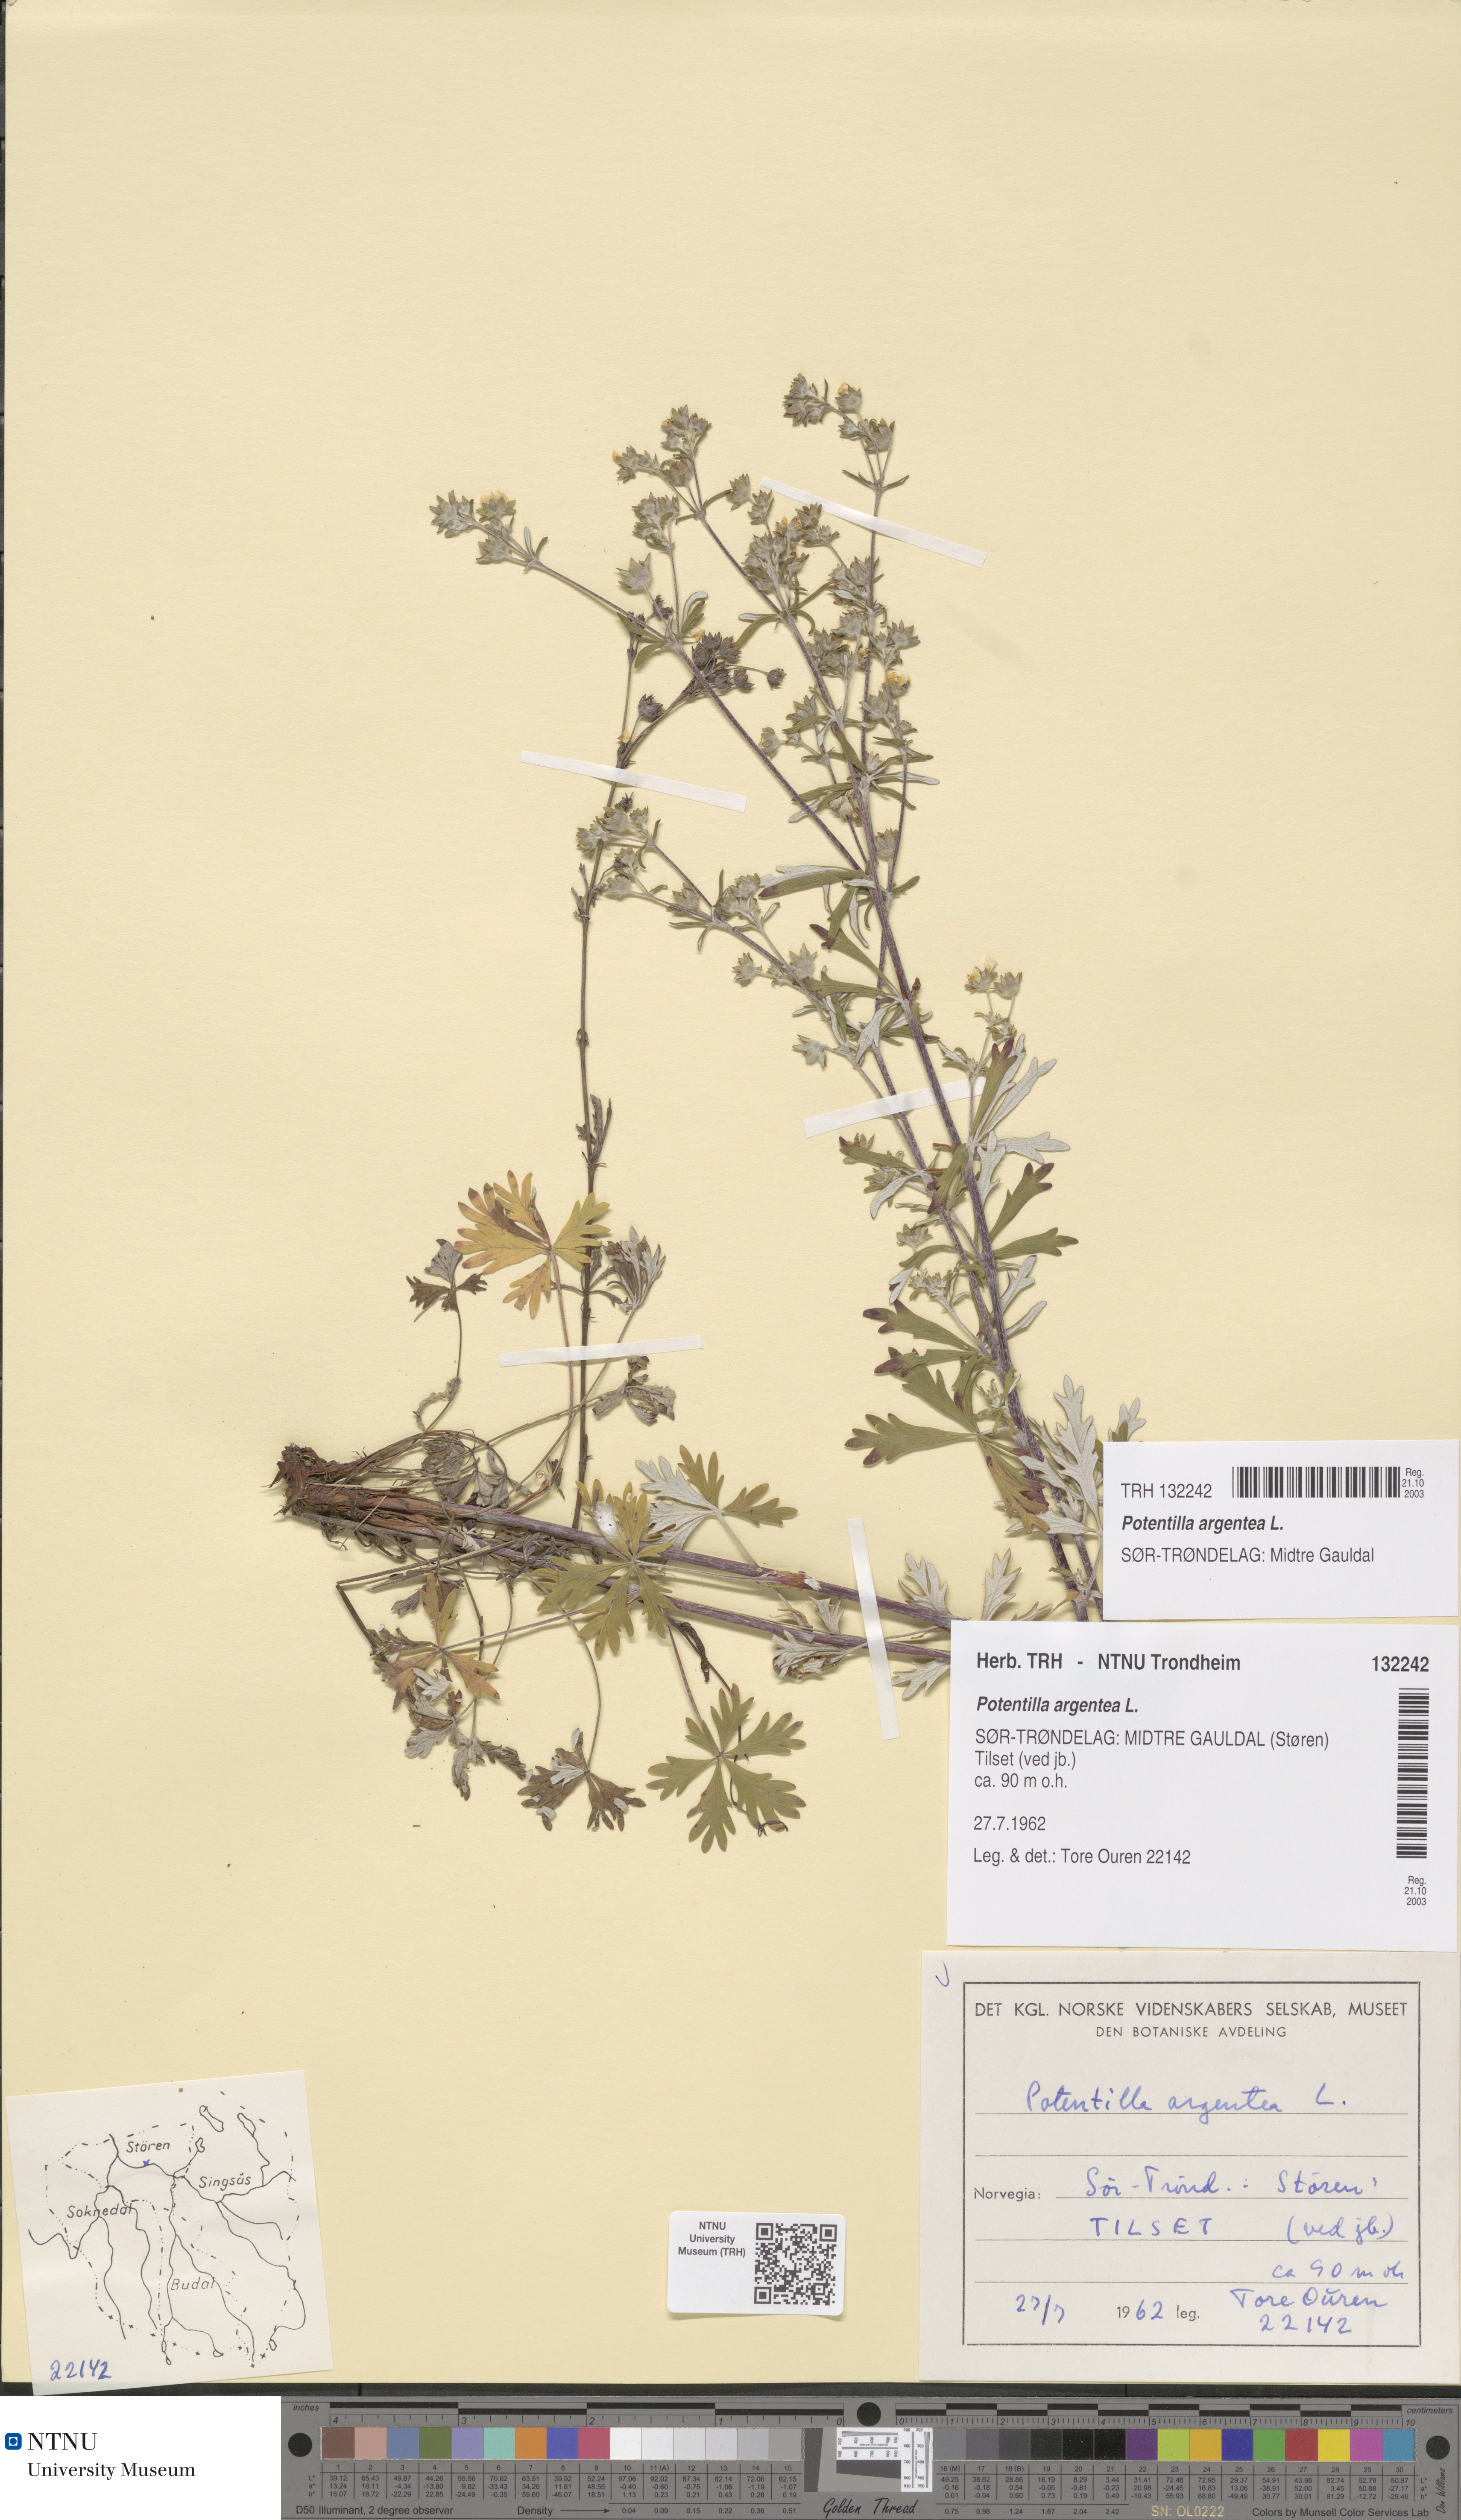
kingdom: Plantae
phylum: Tracheophyta
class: Magnoliopsida
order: Rosales
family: Rosaceae
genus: Potentilla
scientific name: Potentilla argentea
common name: Hoary cinquefoil
